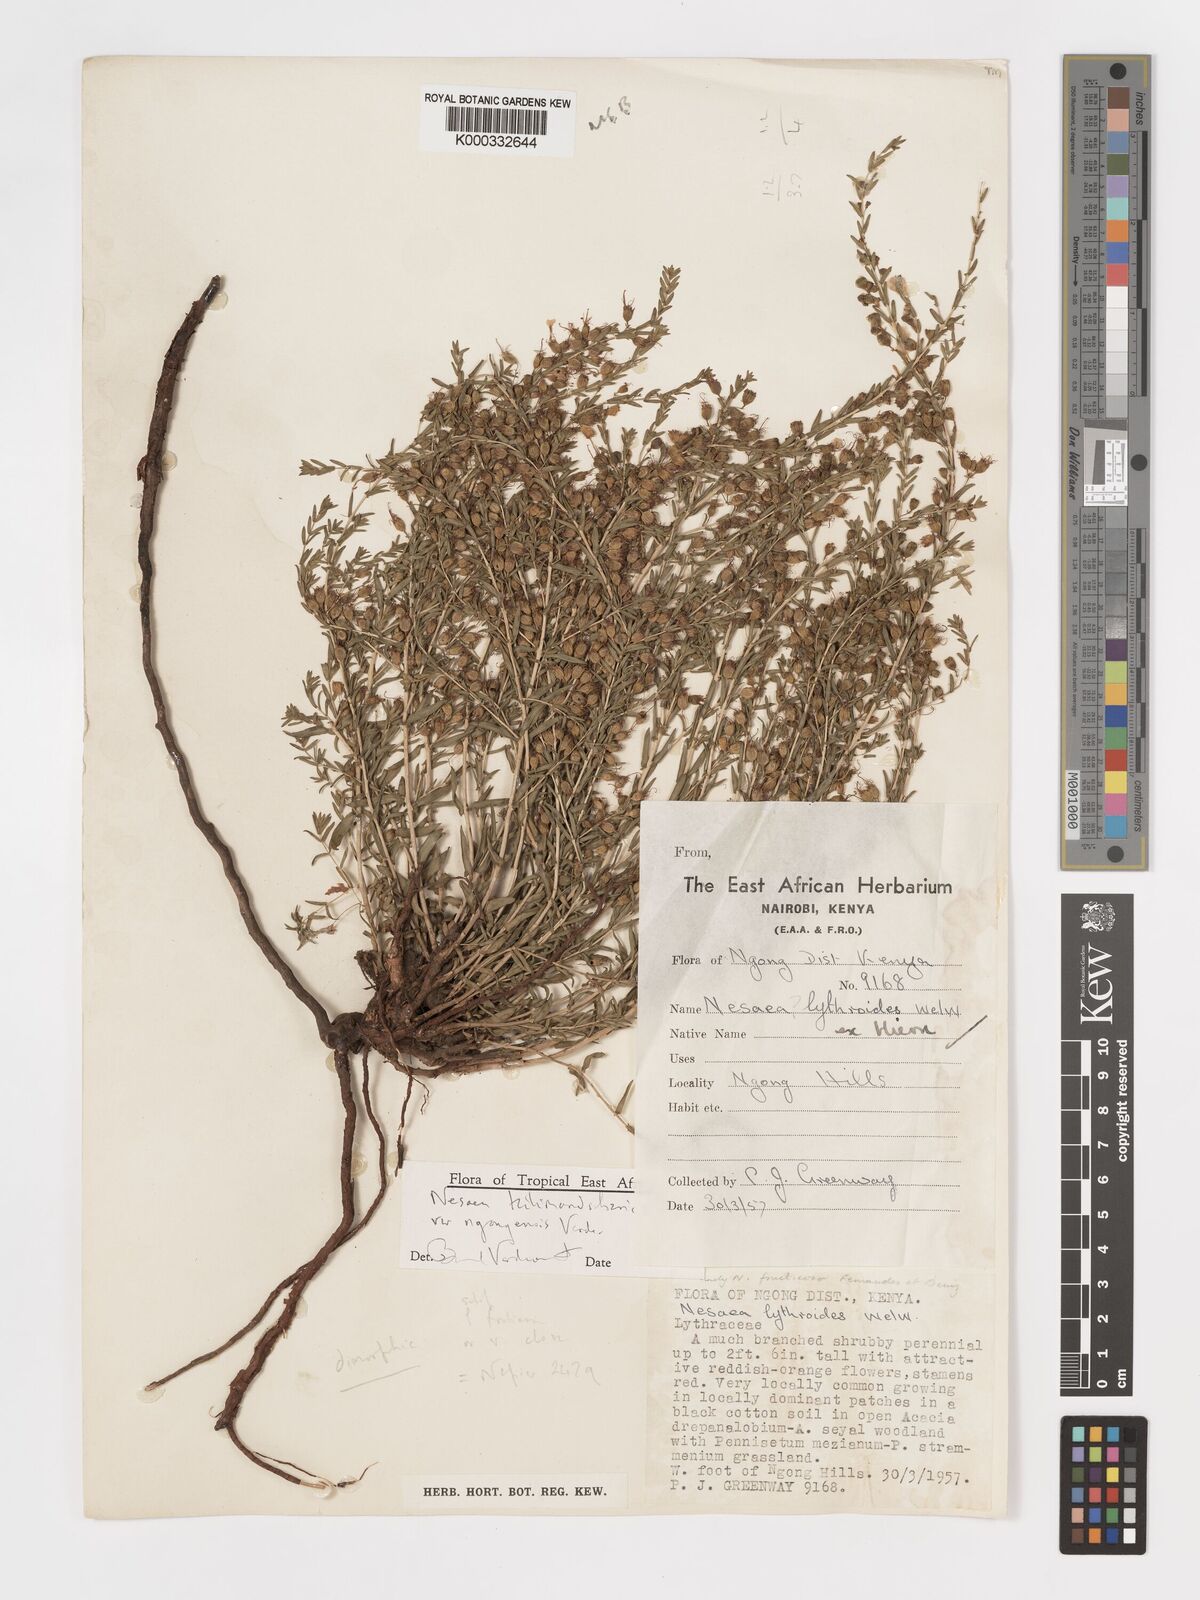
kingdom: Plantae
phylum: Tracheophyta
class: Magnoliopsida
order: Myrtales
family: Lythraceae
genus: Ammannia
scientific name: Ammannia kilimandscharica
